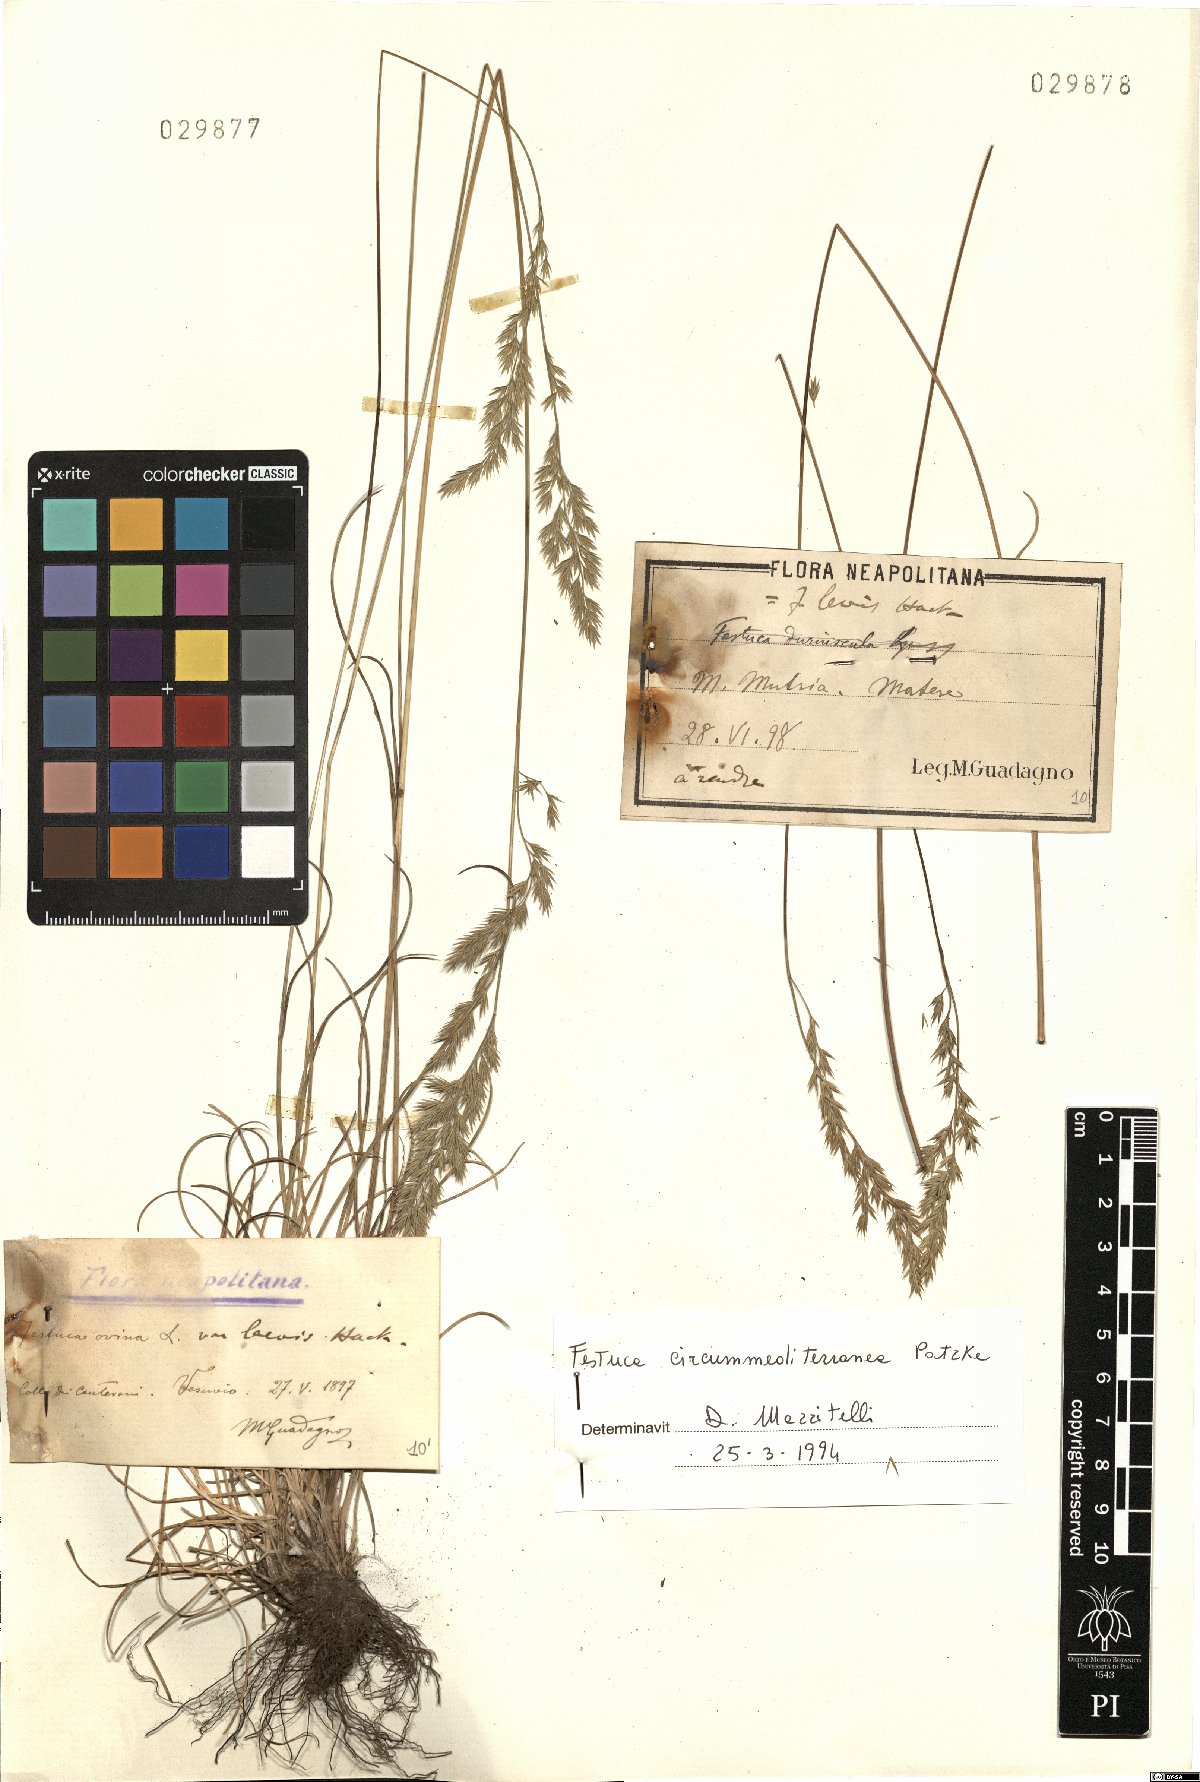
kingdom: Plantae
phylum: Tracheophyta
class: Liliopsida
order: Poales
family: Poaceae
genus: Festuca
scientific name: Festuca circummediterranea
